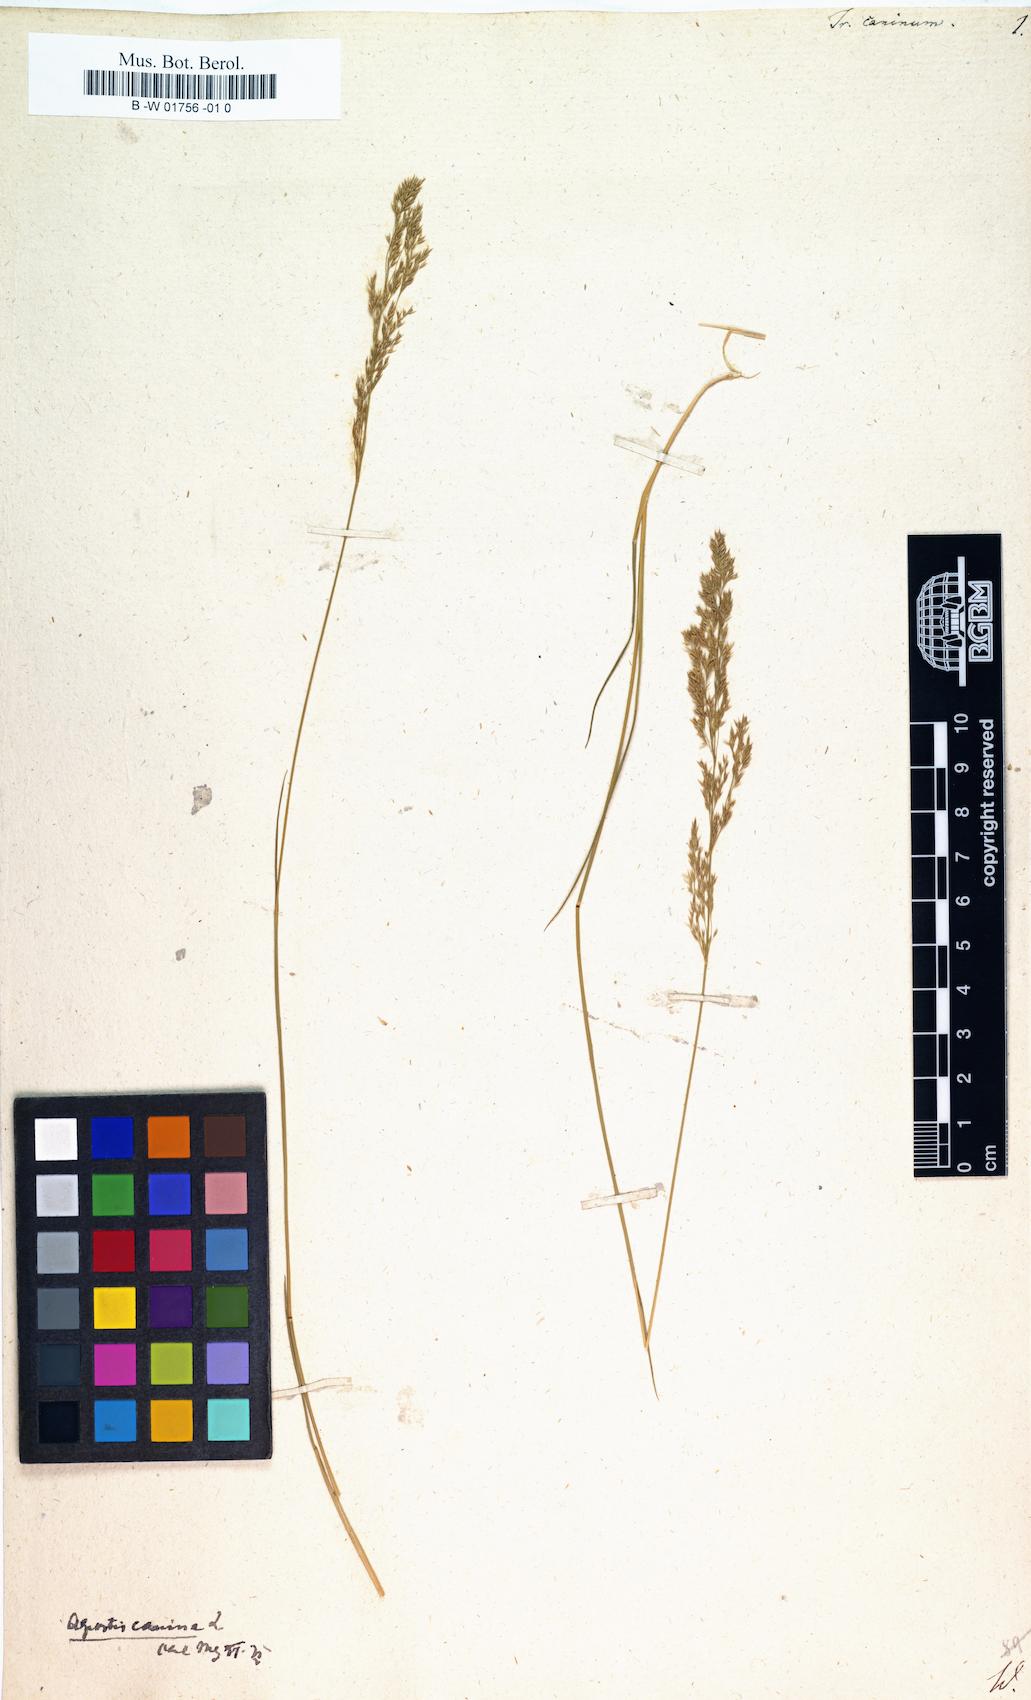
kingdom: Plantae
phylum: Tracheophyta
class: Liliopsida
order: Poales
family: Poaceae
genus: Agrostis
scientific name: Agrostis canina
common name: Velvet bent
